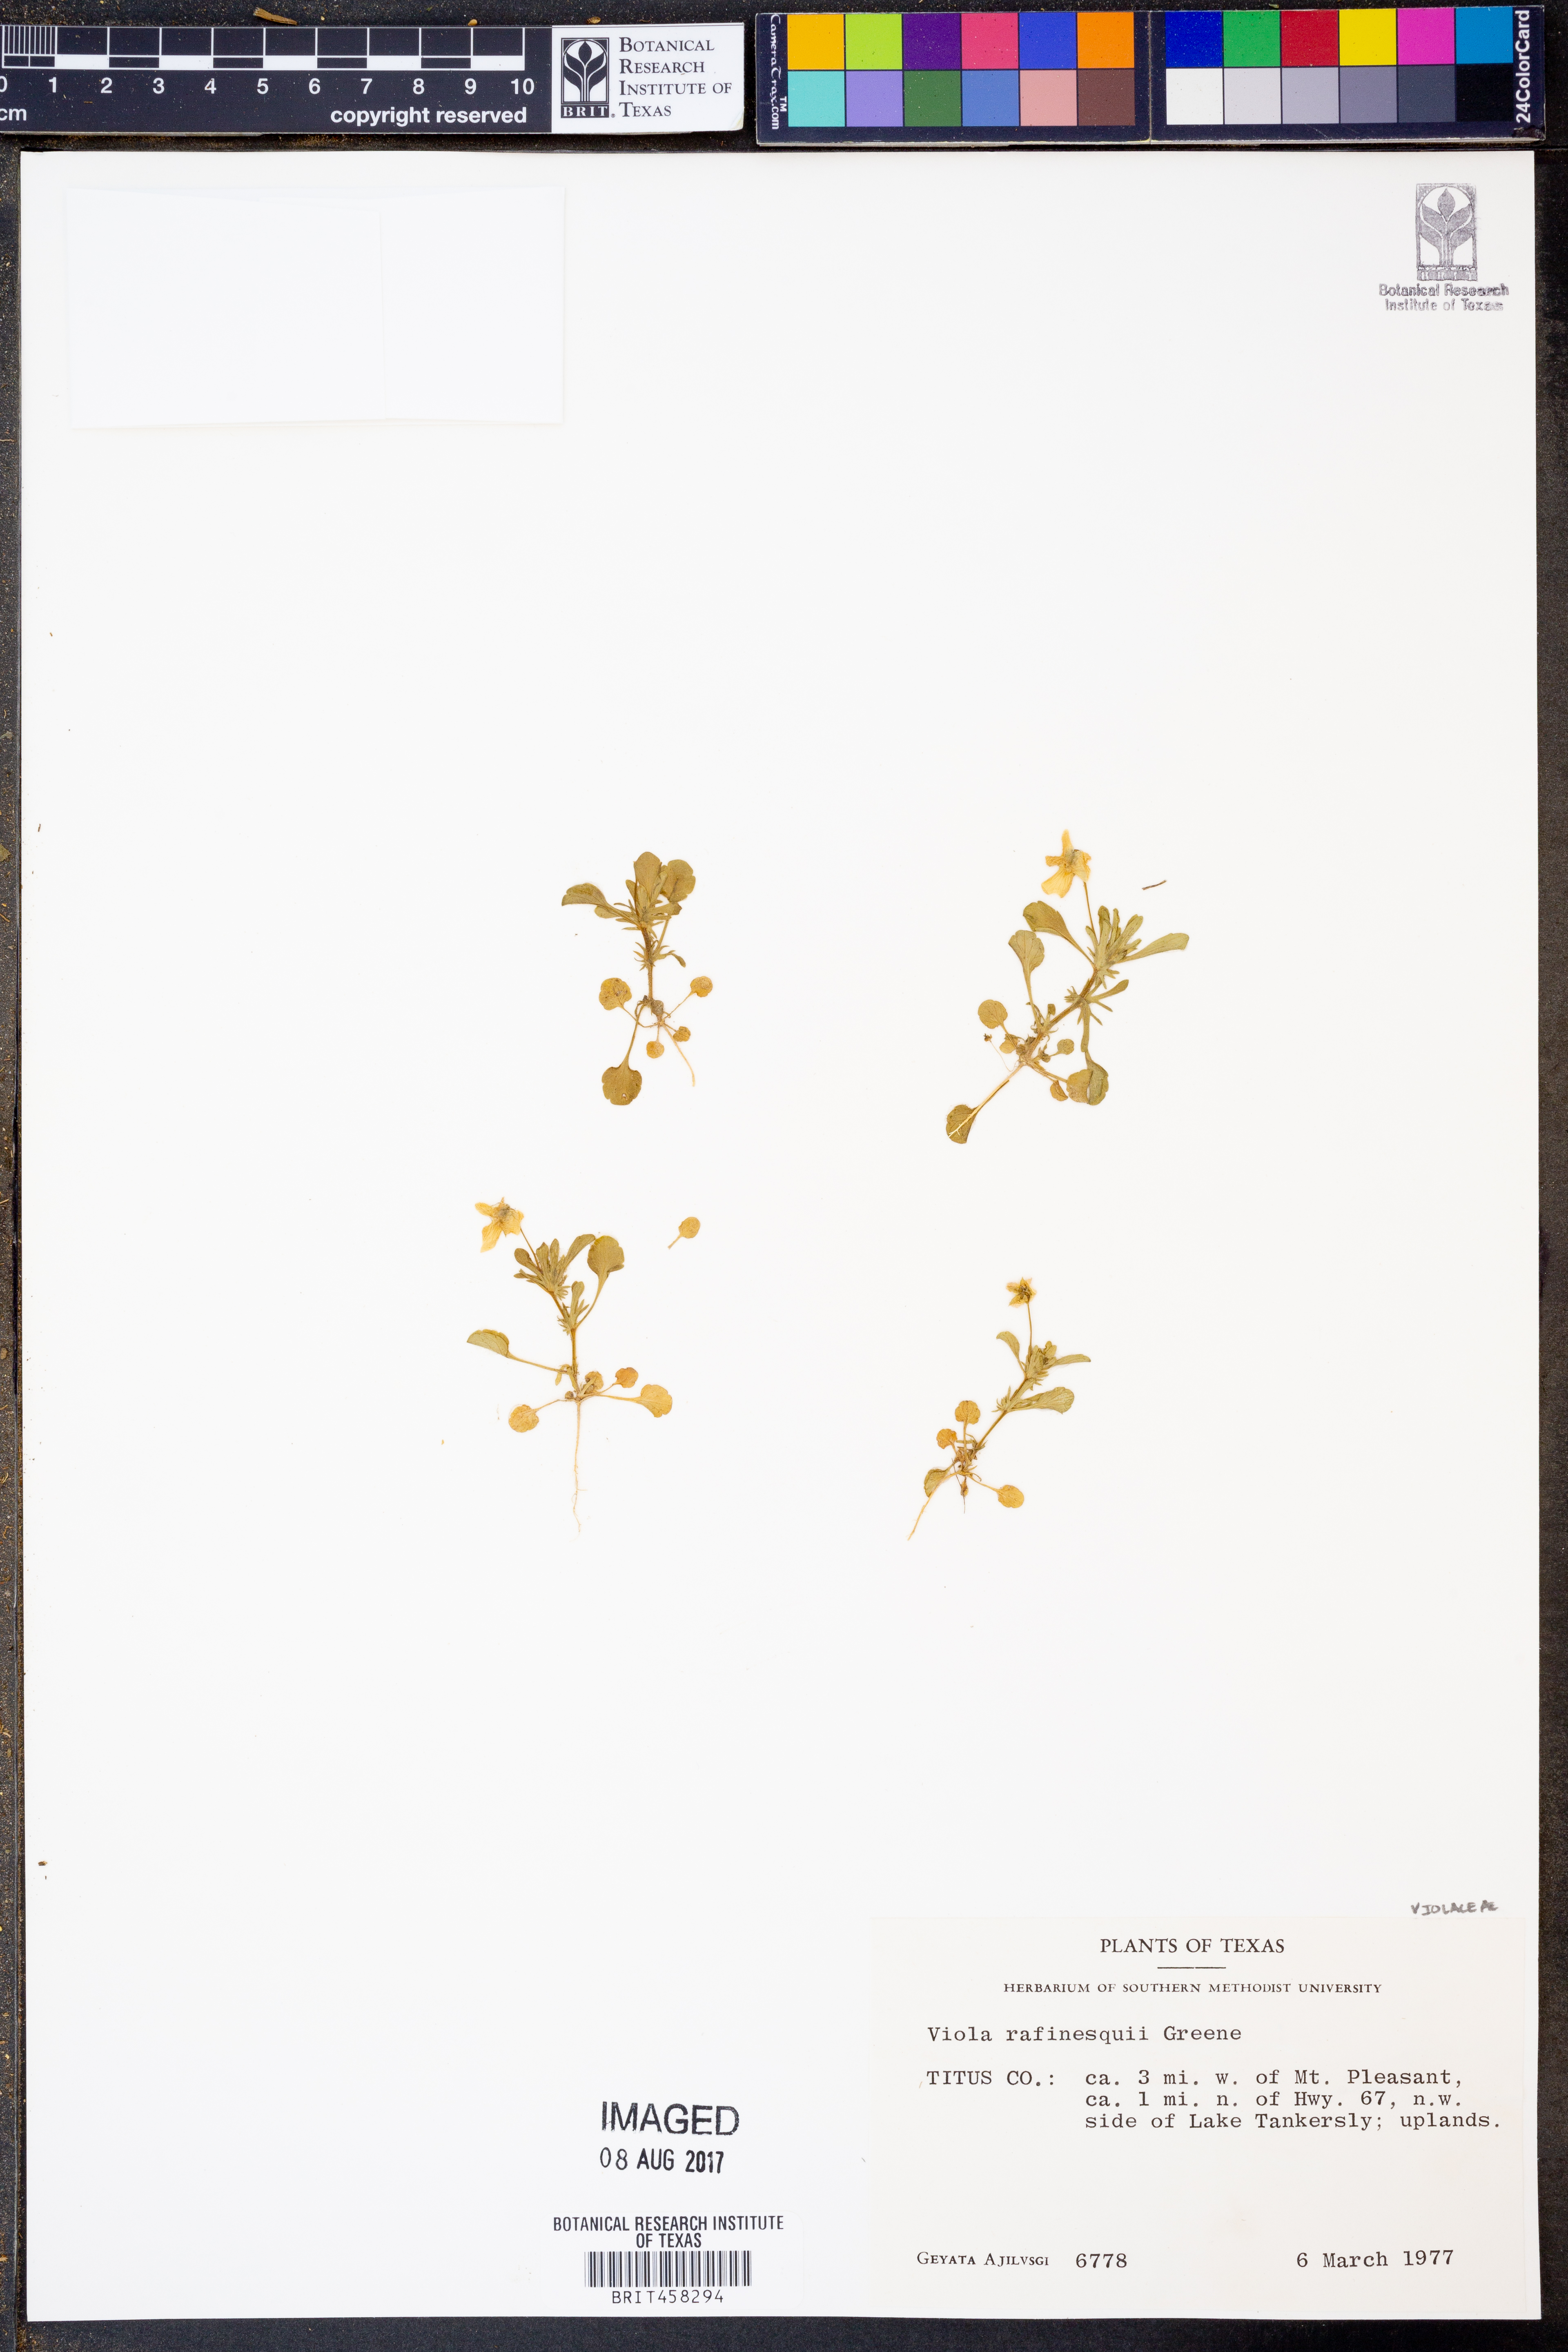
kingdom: Plantae
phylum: Tracheophyta
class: Magnoliopsida
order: Malpighiales
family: Violaceae
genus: Viola
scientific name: Viola rafinesquei
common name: American field pansy
